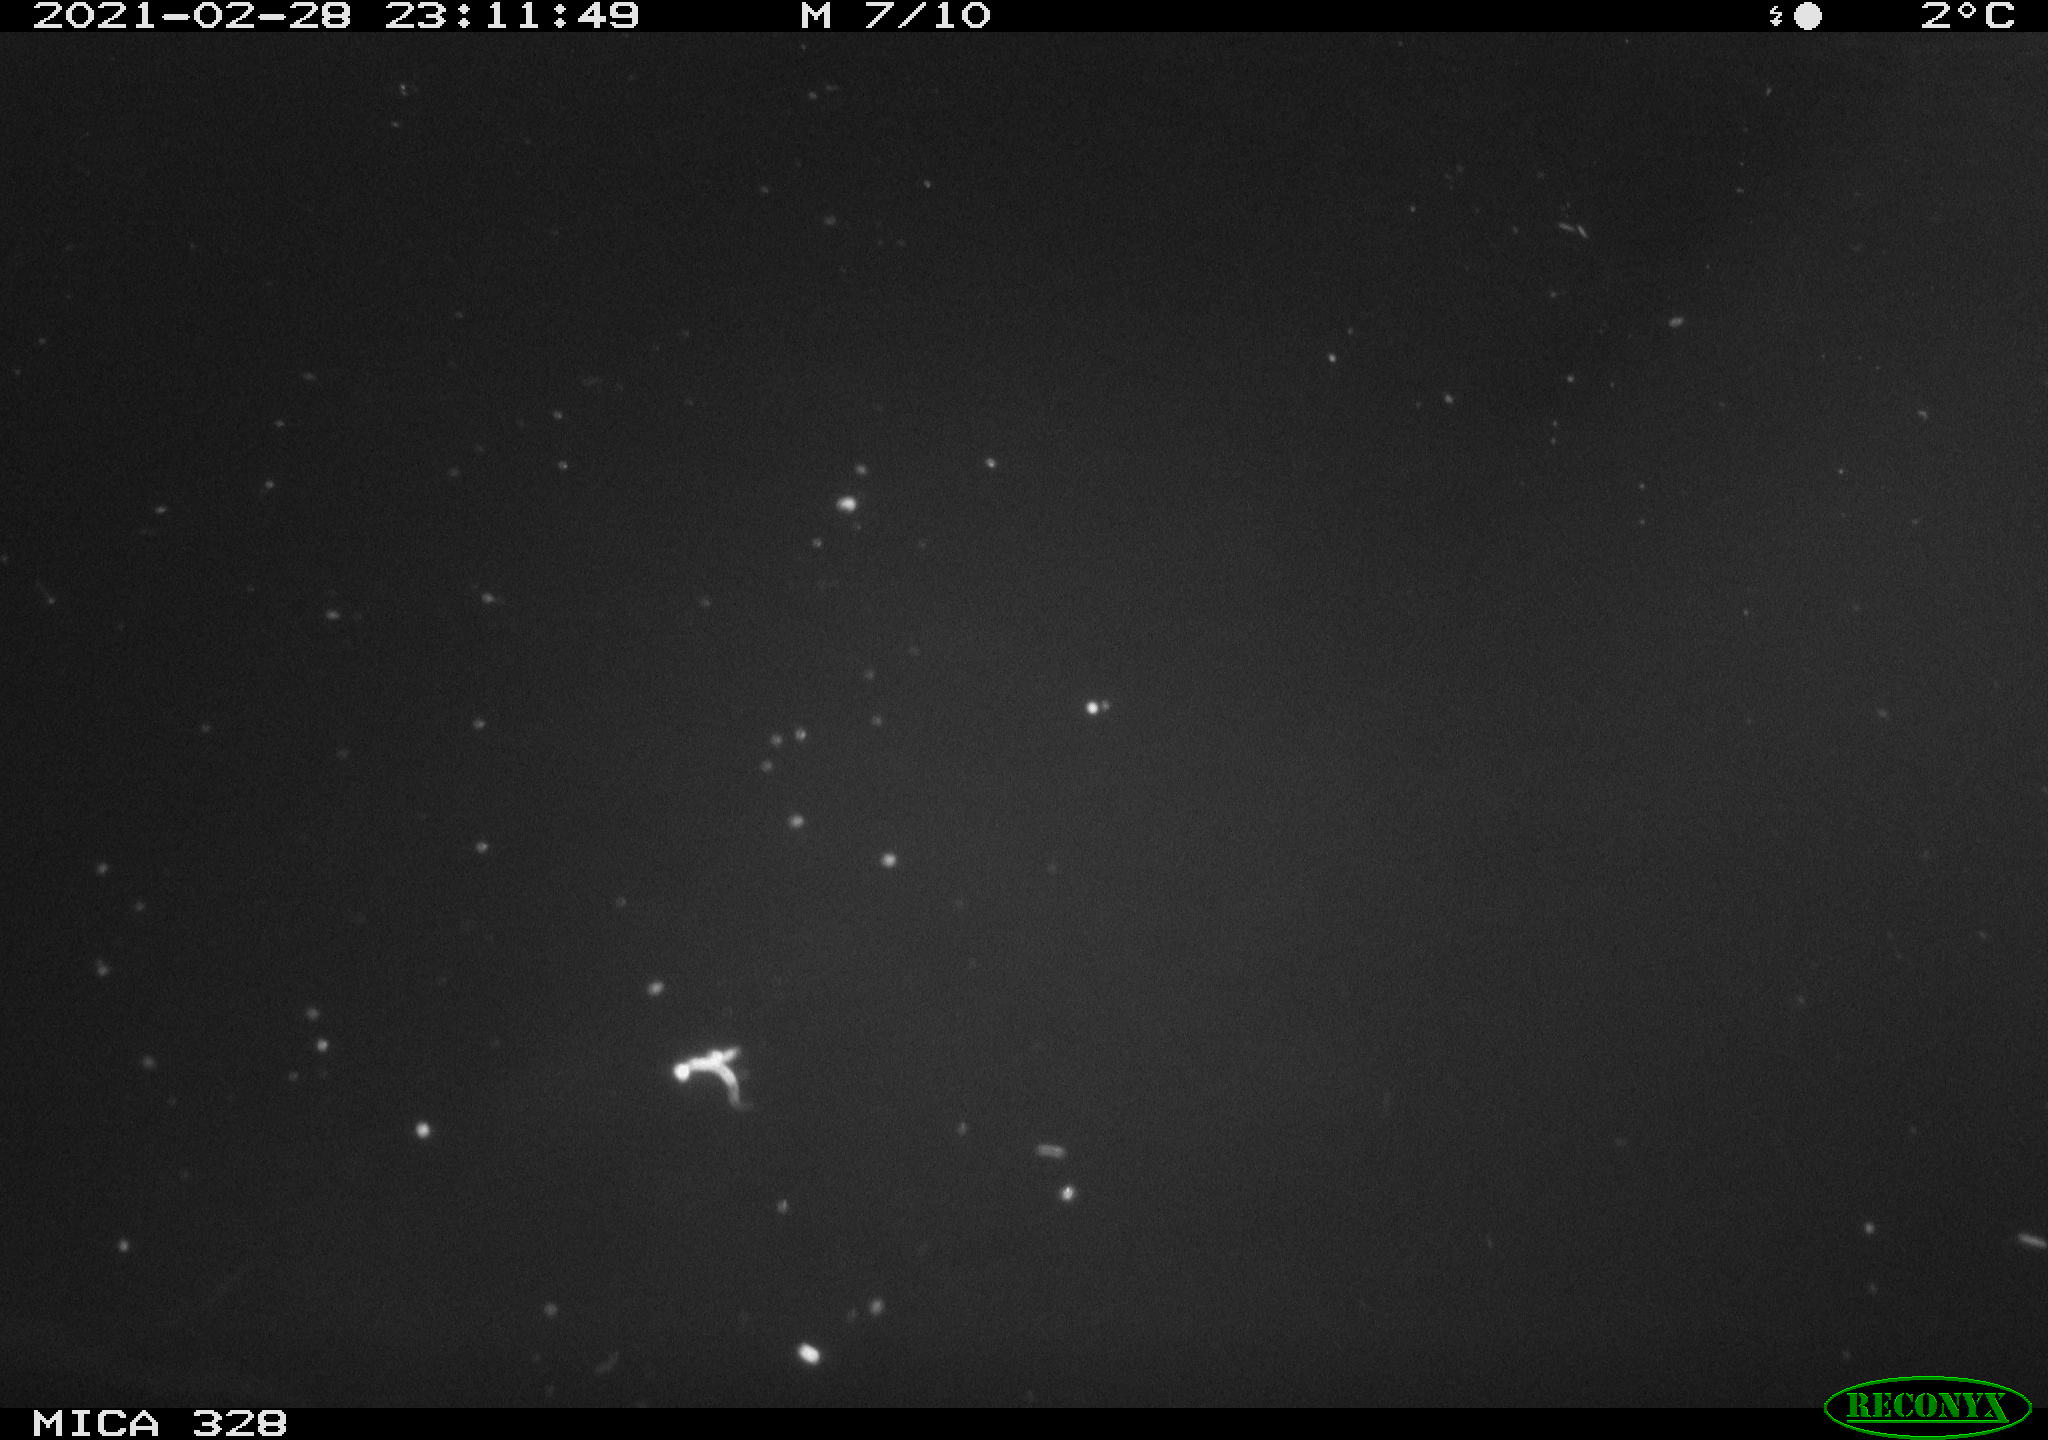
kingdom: Animalia
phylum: Chordata
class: Mammalia
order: Rodentia
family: Cricetidae
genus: Ondatra
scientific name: Ondatra zibethicus
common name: Muskrat
